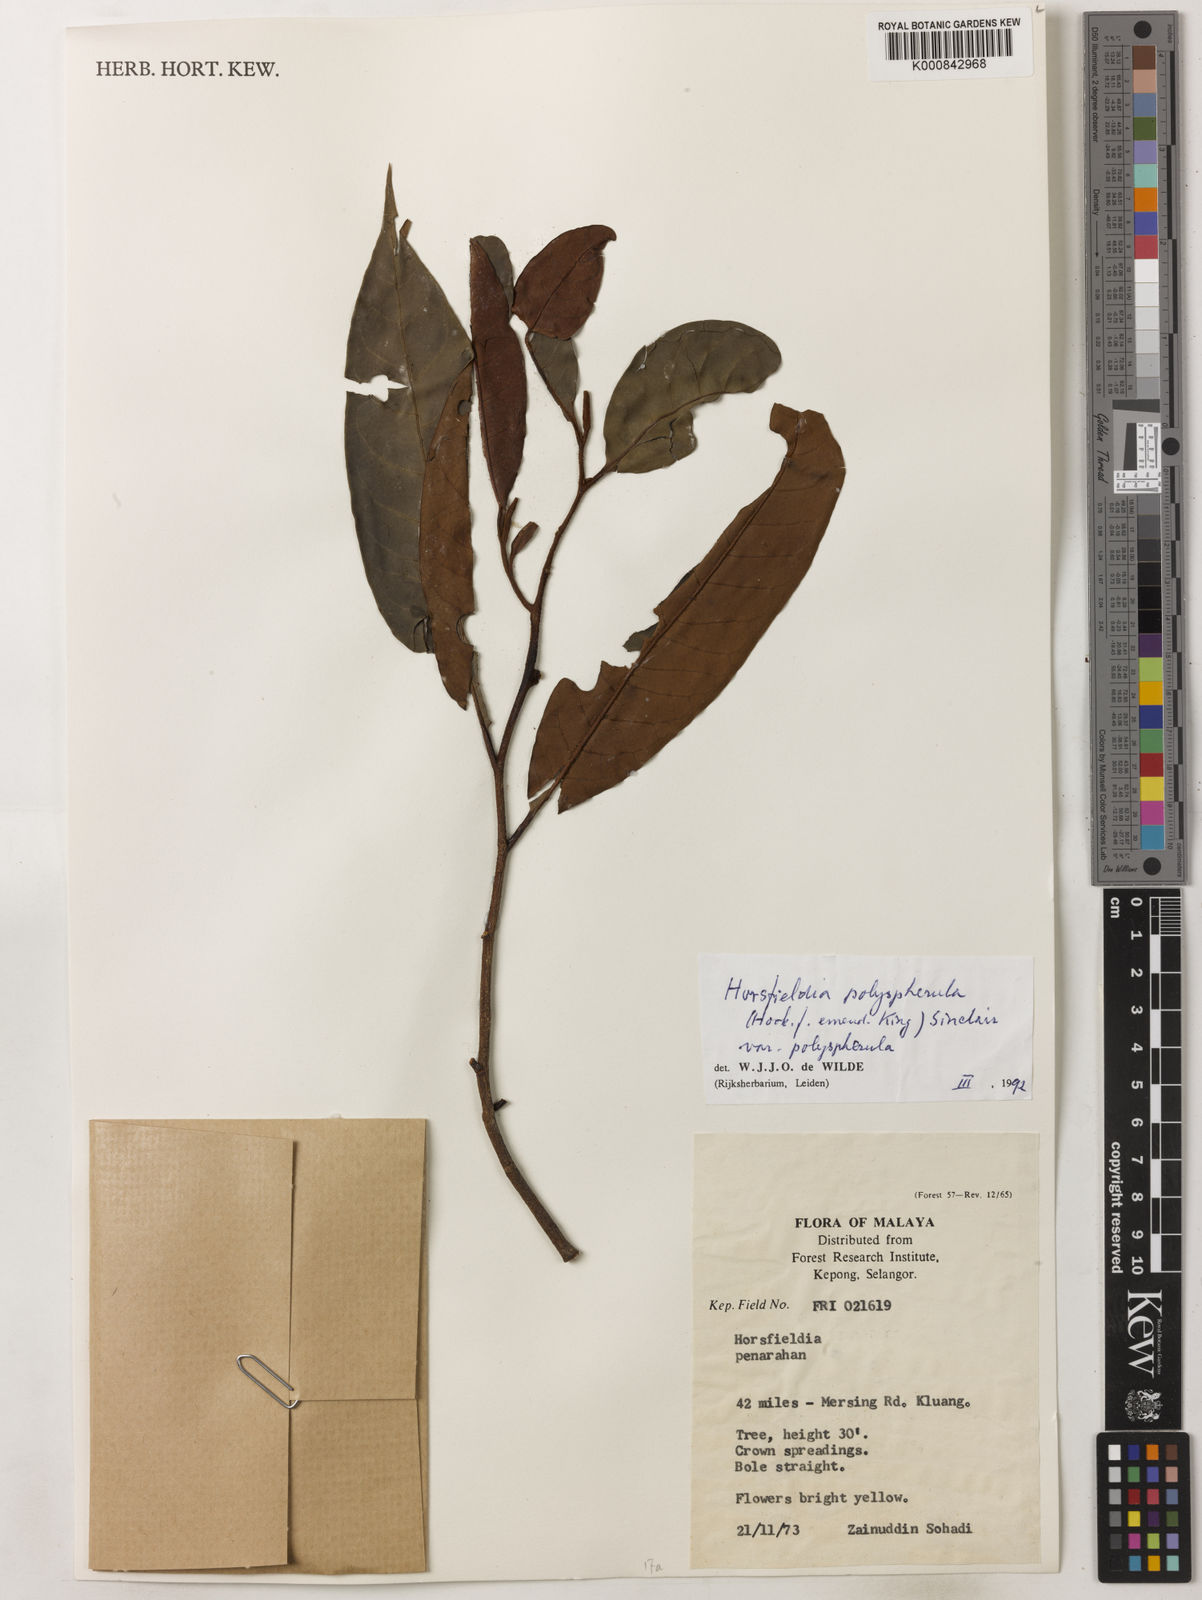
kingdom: Plantae
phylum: Tracheophyta
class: Magnoliopsida
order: Magnoliales
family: Myristicaceae
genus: Horsfieldia
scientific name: Horsfieldia
